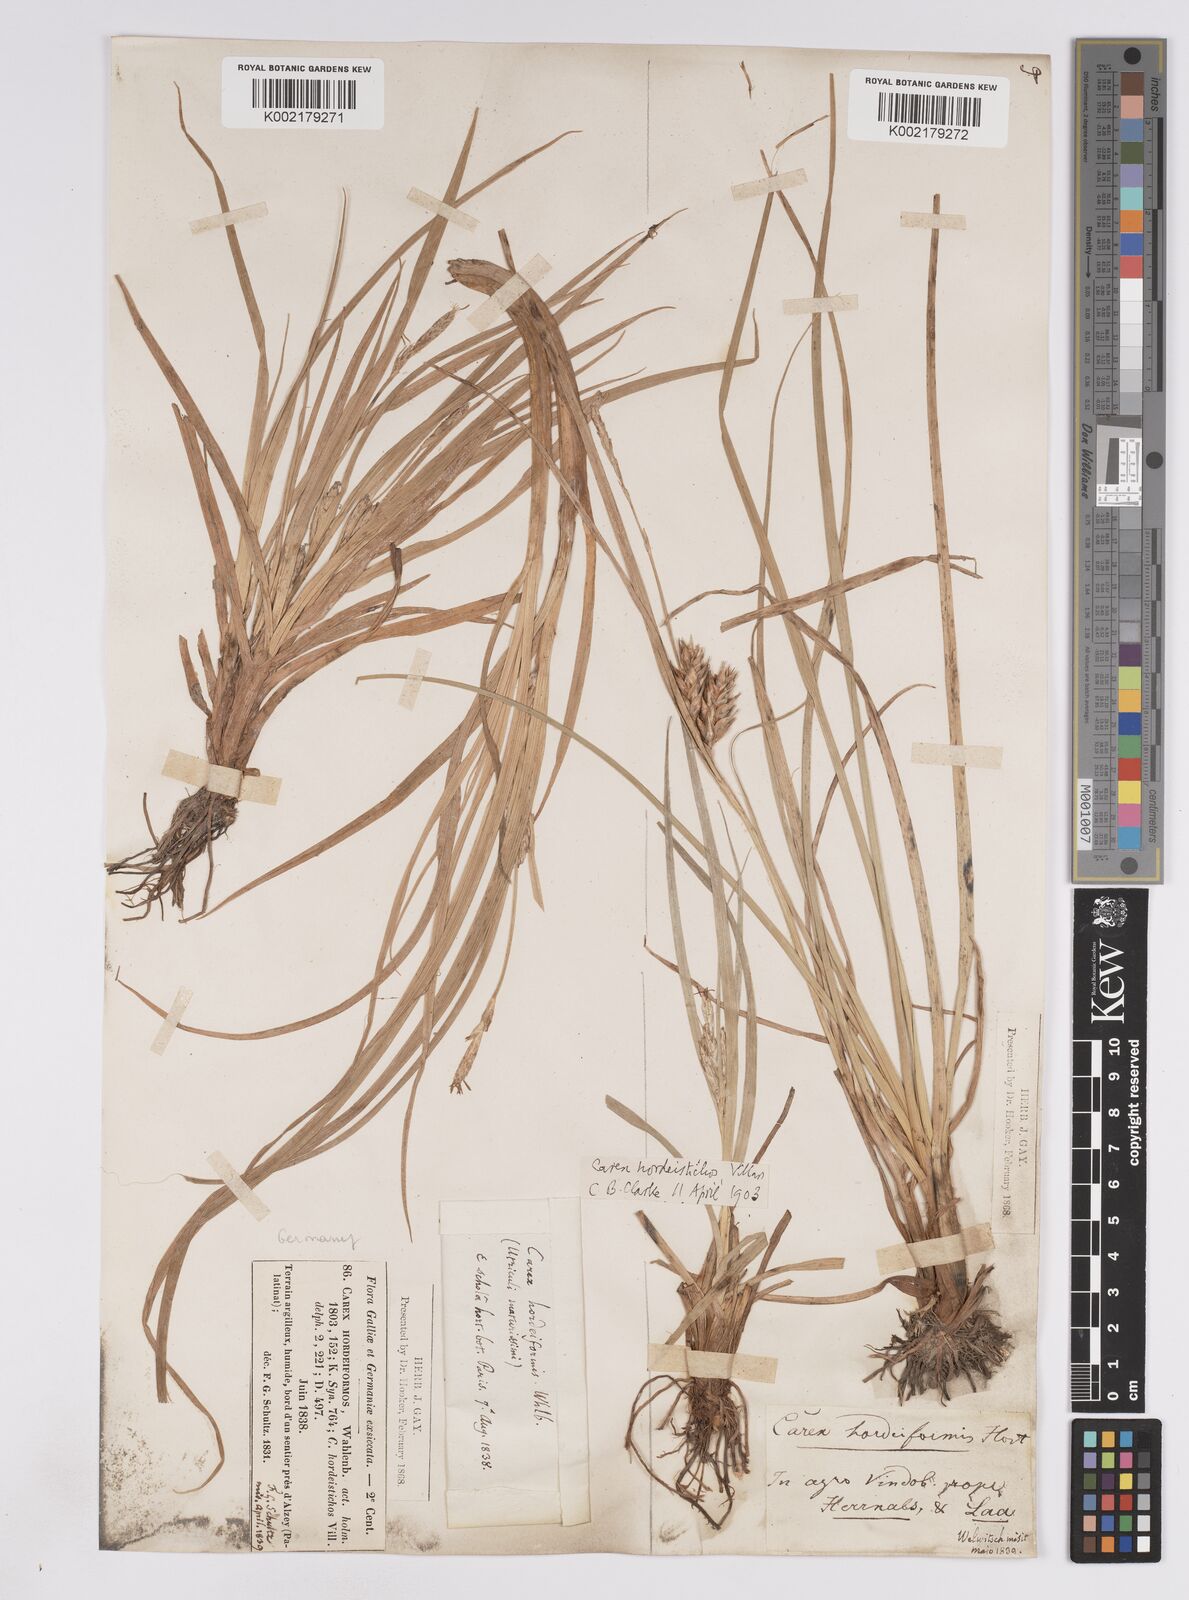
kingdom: Plantae
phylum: Tracheophyta
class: Liliopsida
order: Poales
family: Cyperaceae
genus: Carex
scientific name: Carex hordeistichos
